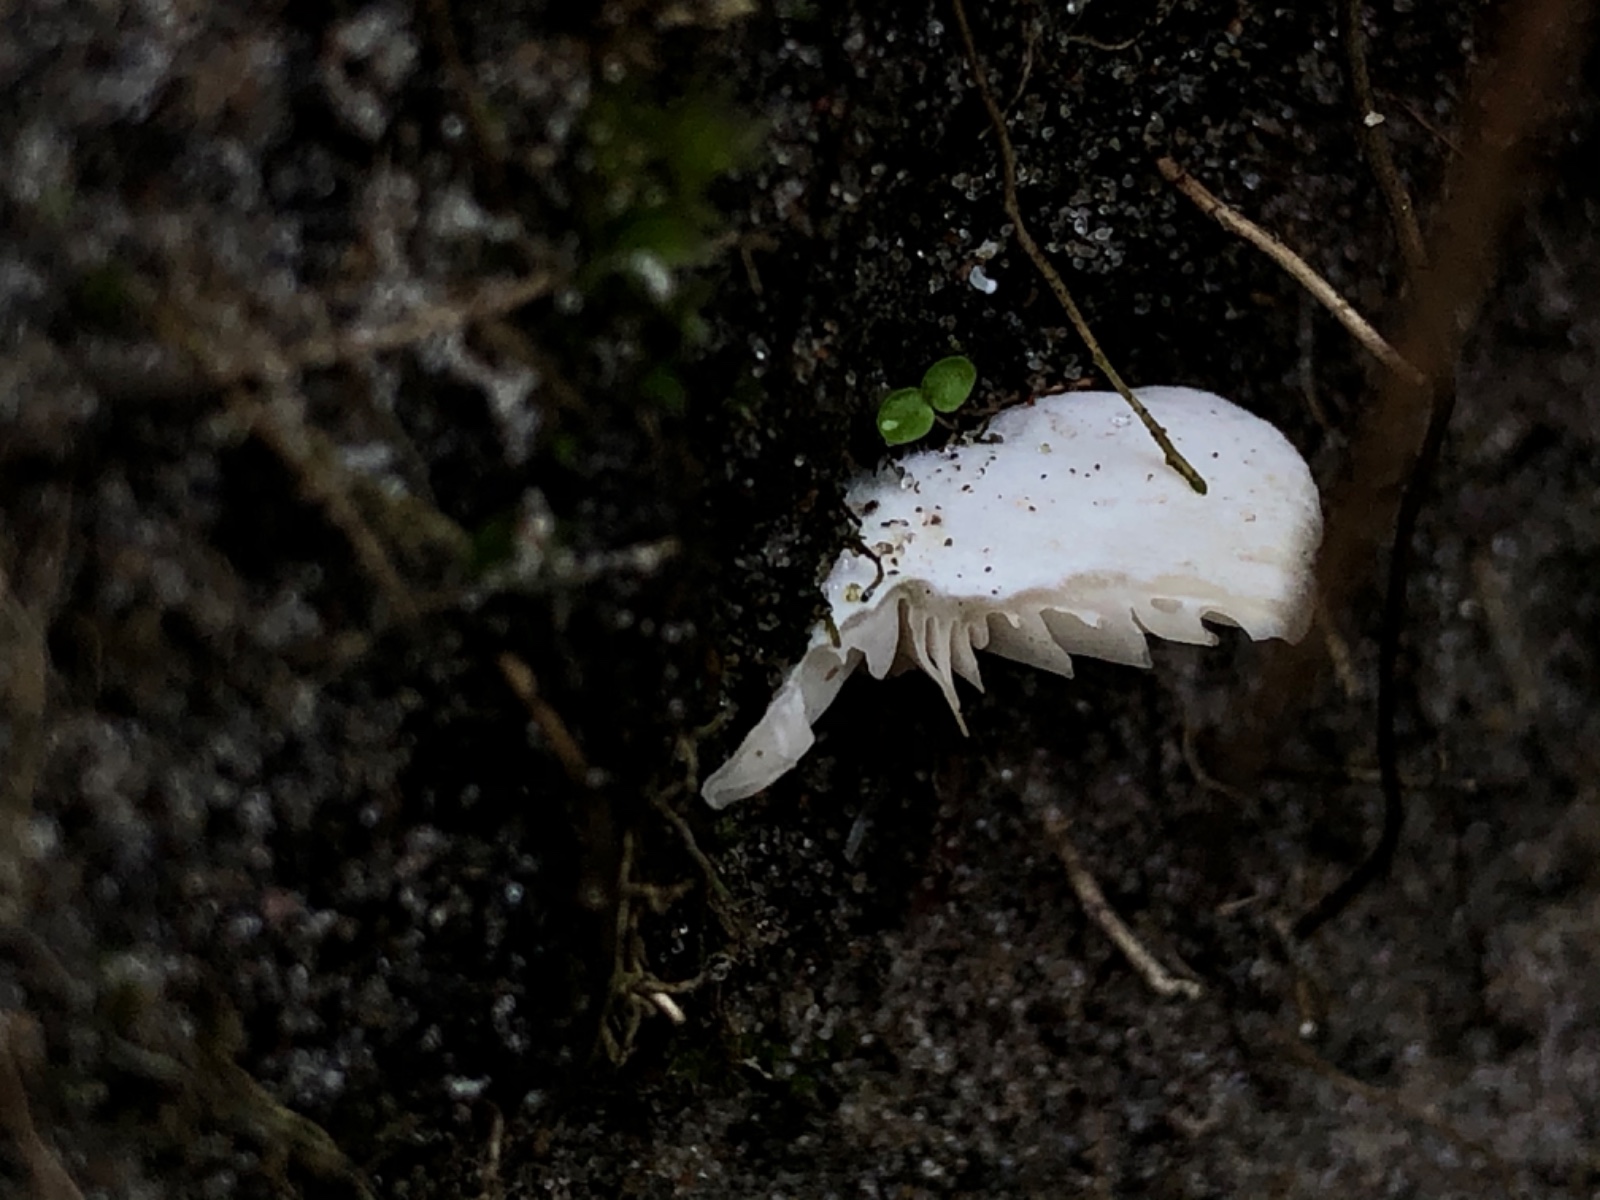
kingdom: Fungi
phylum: Basidiomycota
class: Agaricomycetes
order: Agaricales
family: Entolomataceae
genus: Clitopilus
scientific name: Clitopilus scyphoides
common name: spinkel melhat
